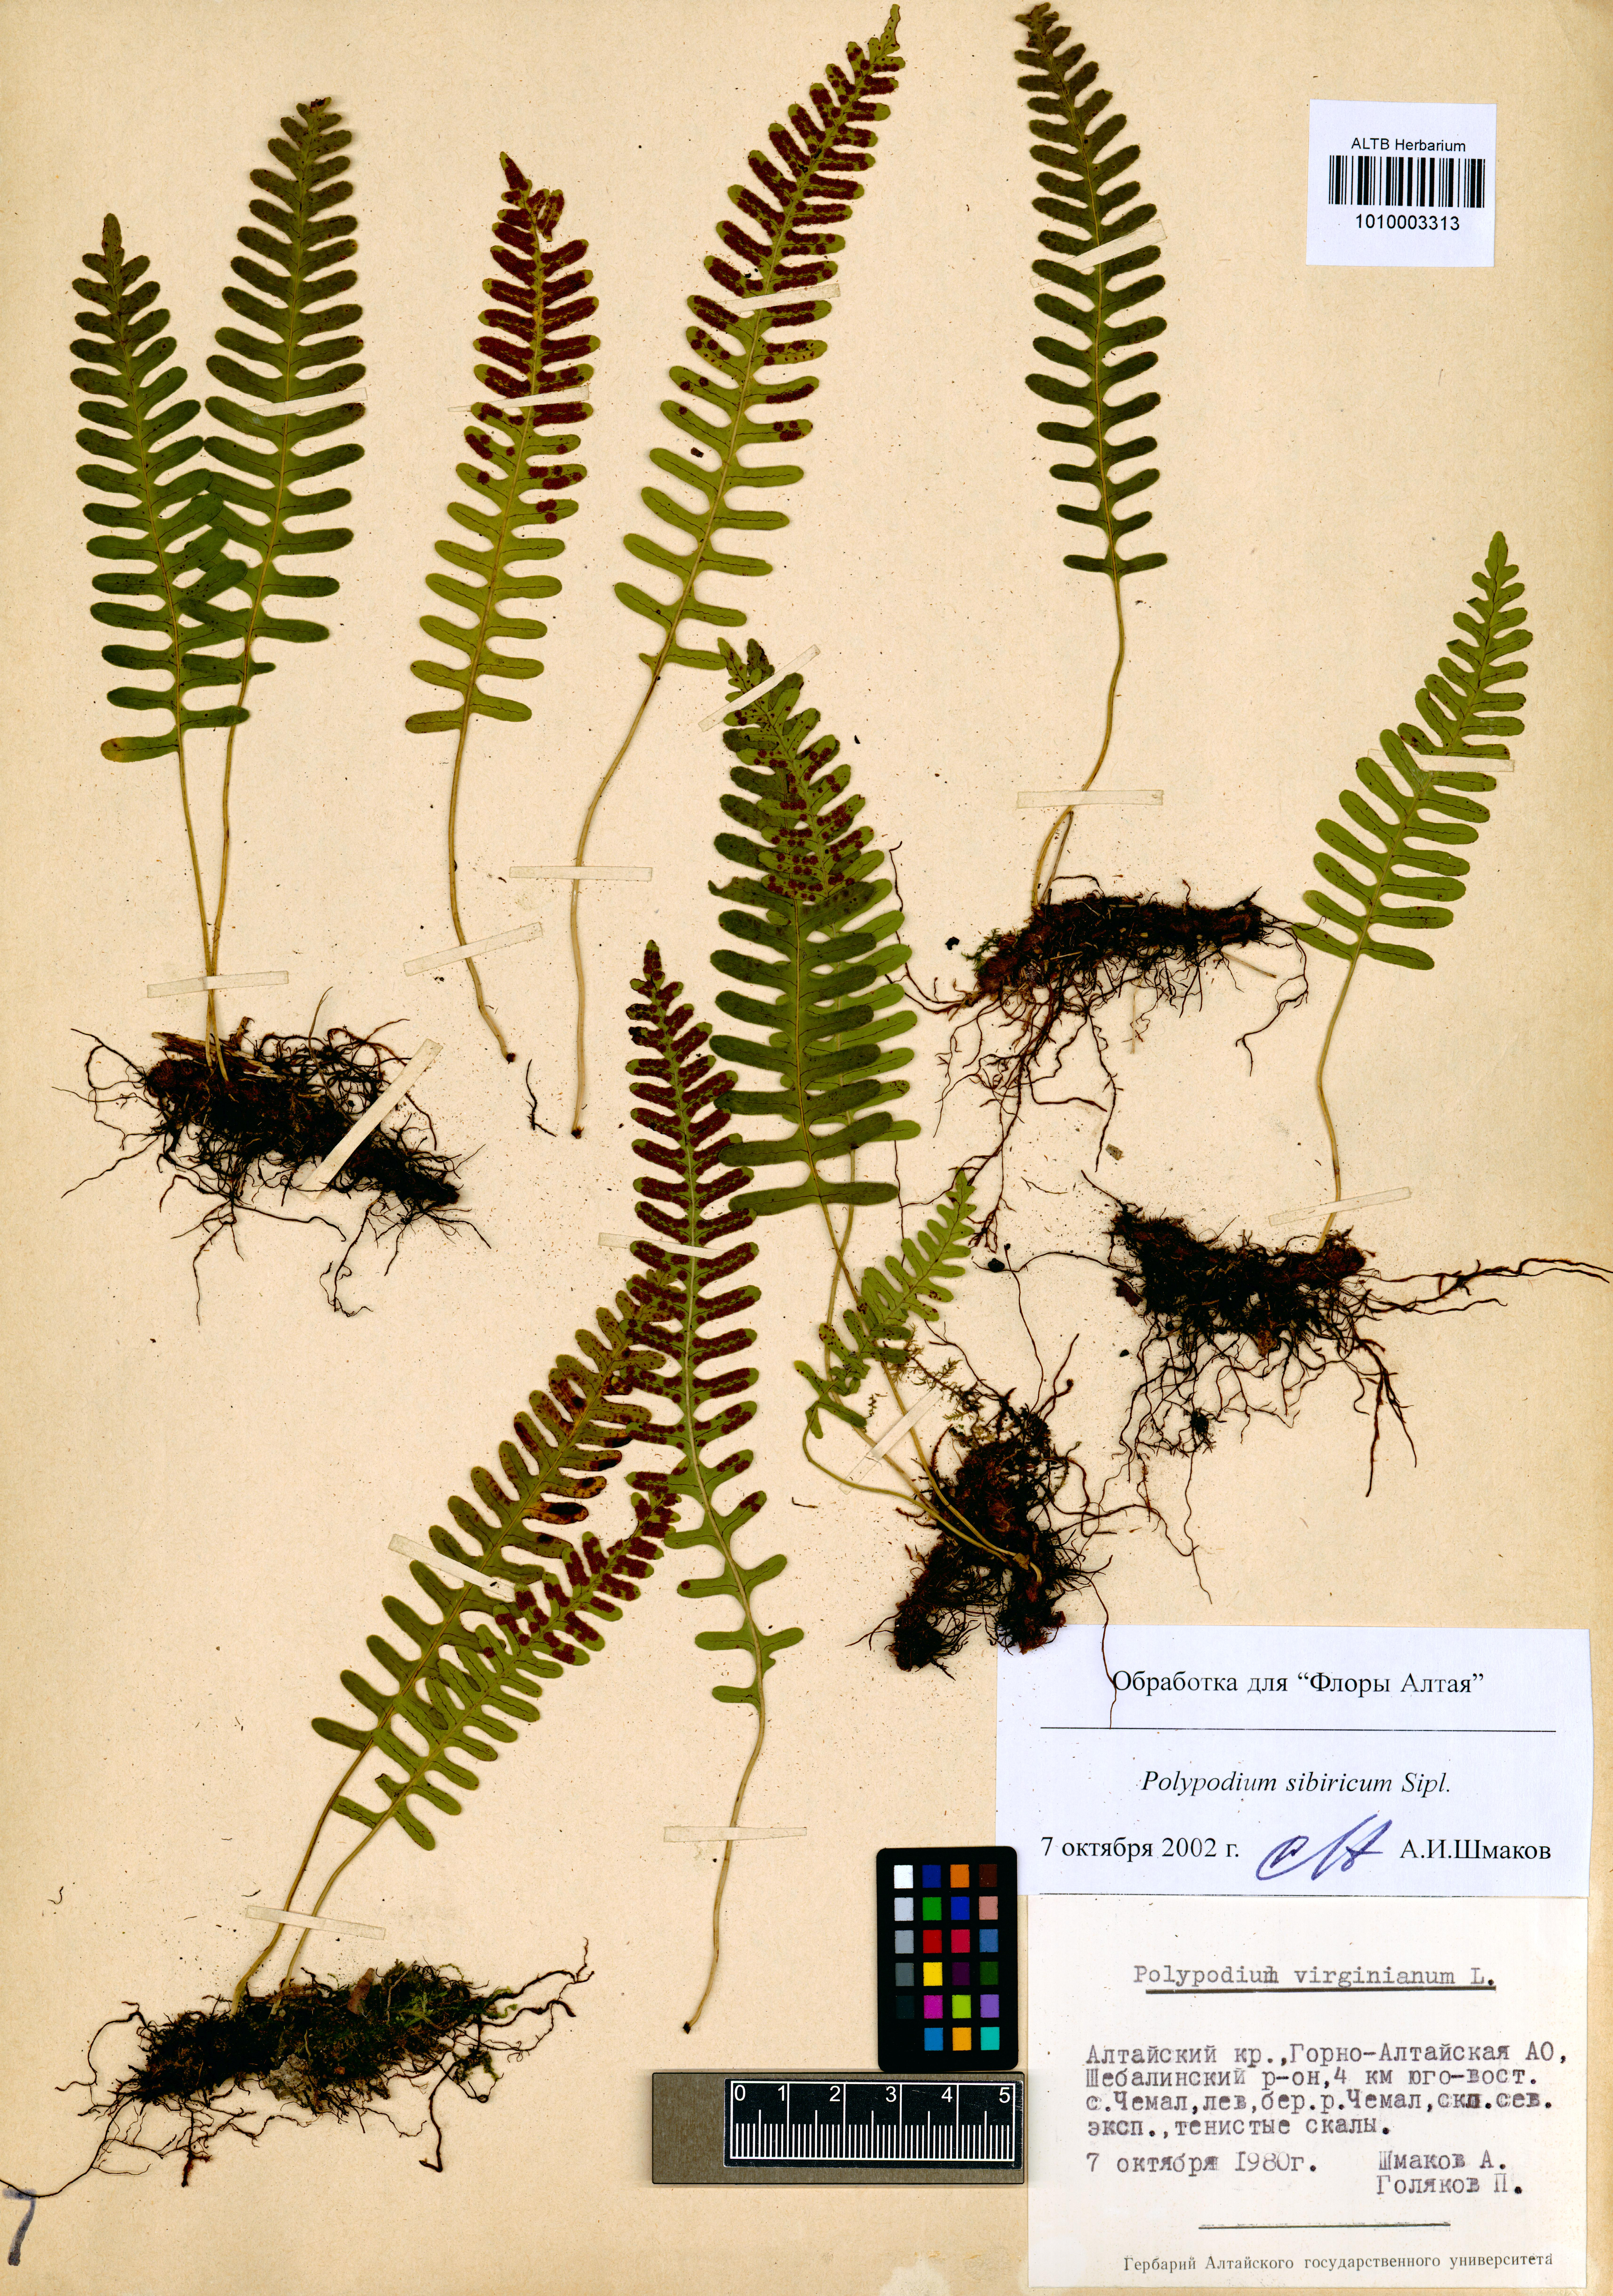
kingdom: Plantae
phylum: Tracheophyta
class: Polypodiopsida
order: Polypodiales
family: Polypodiaceae
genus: Polypodium
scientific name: Polypodium sibiricum
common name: Siberian polypody
